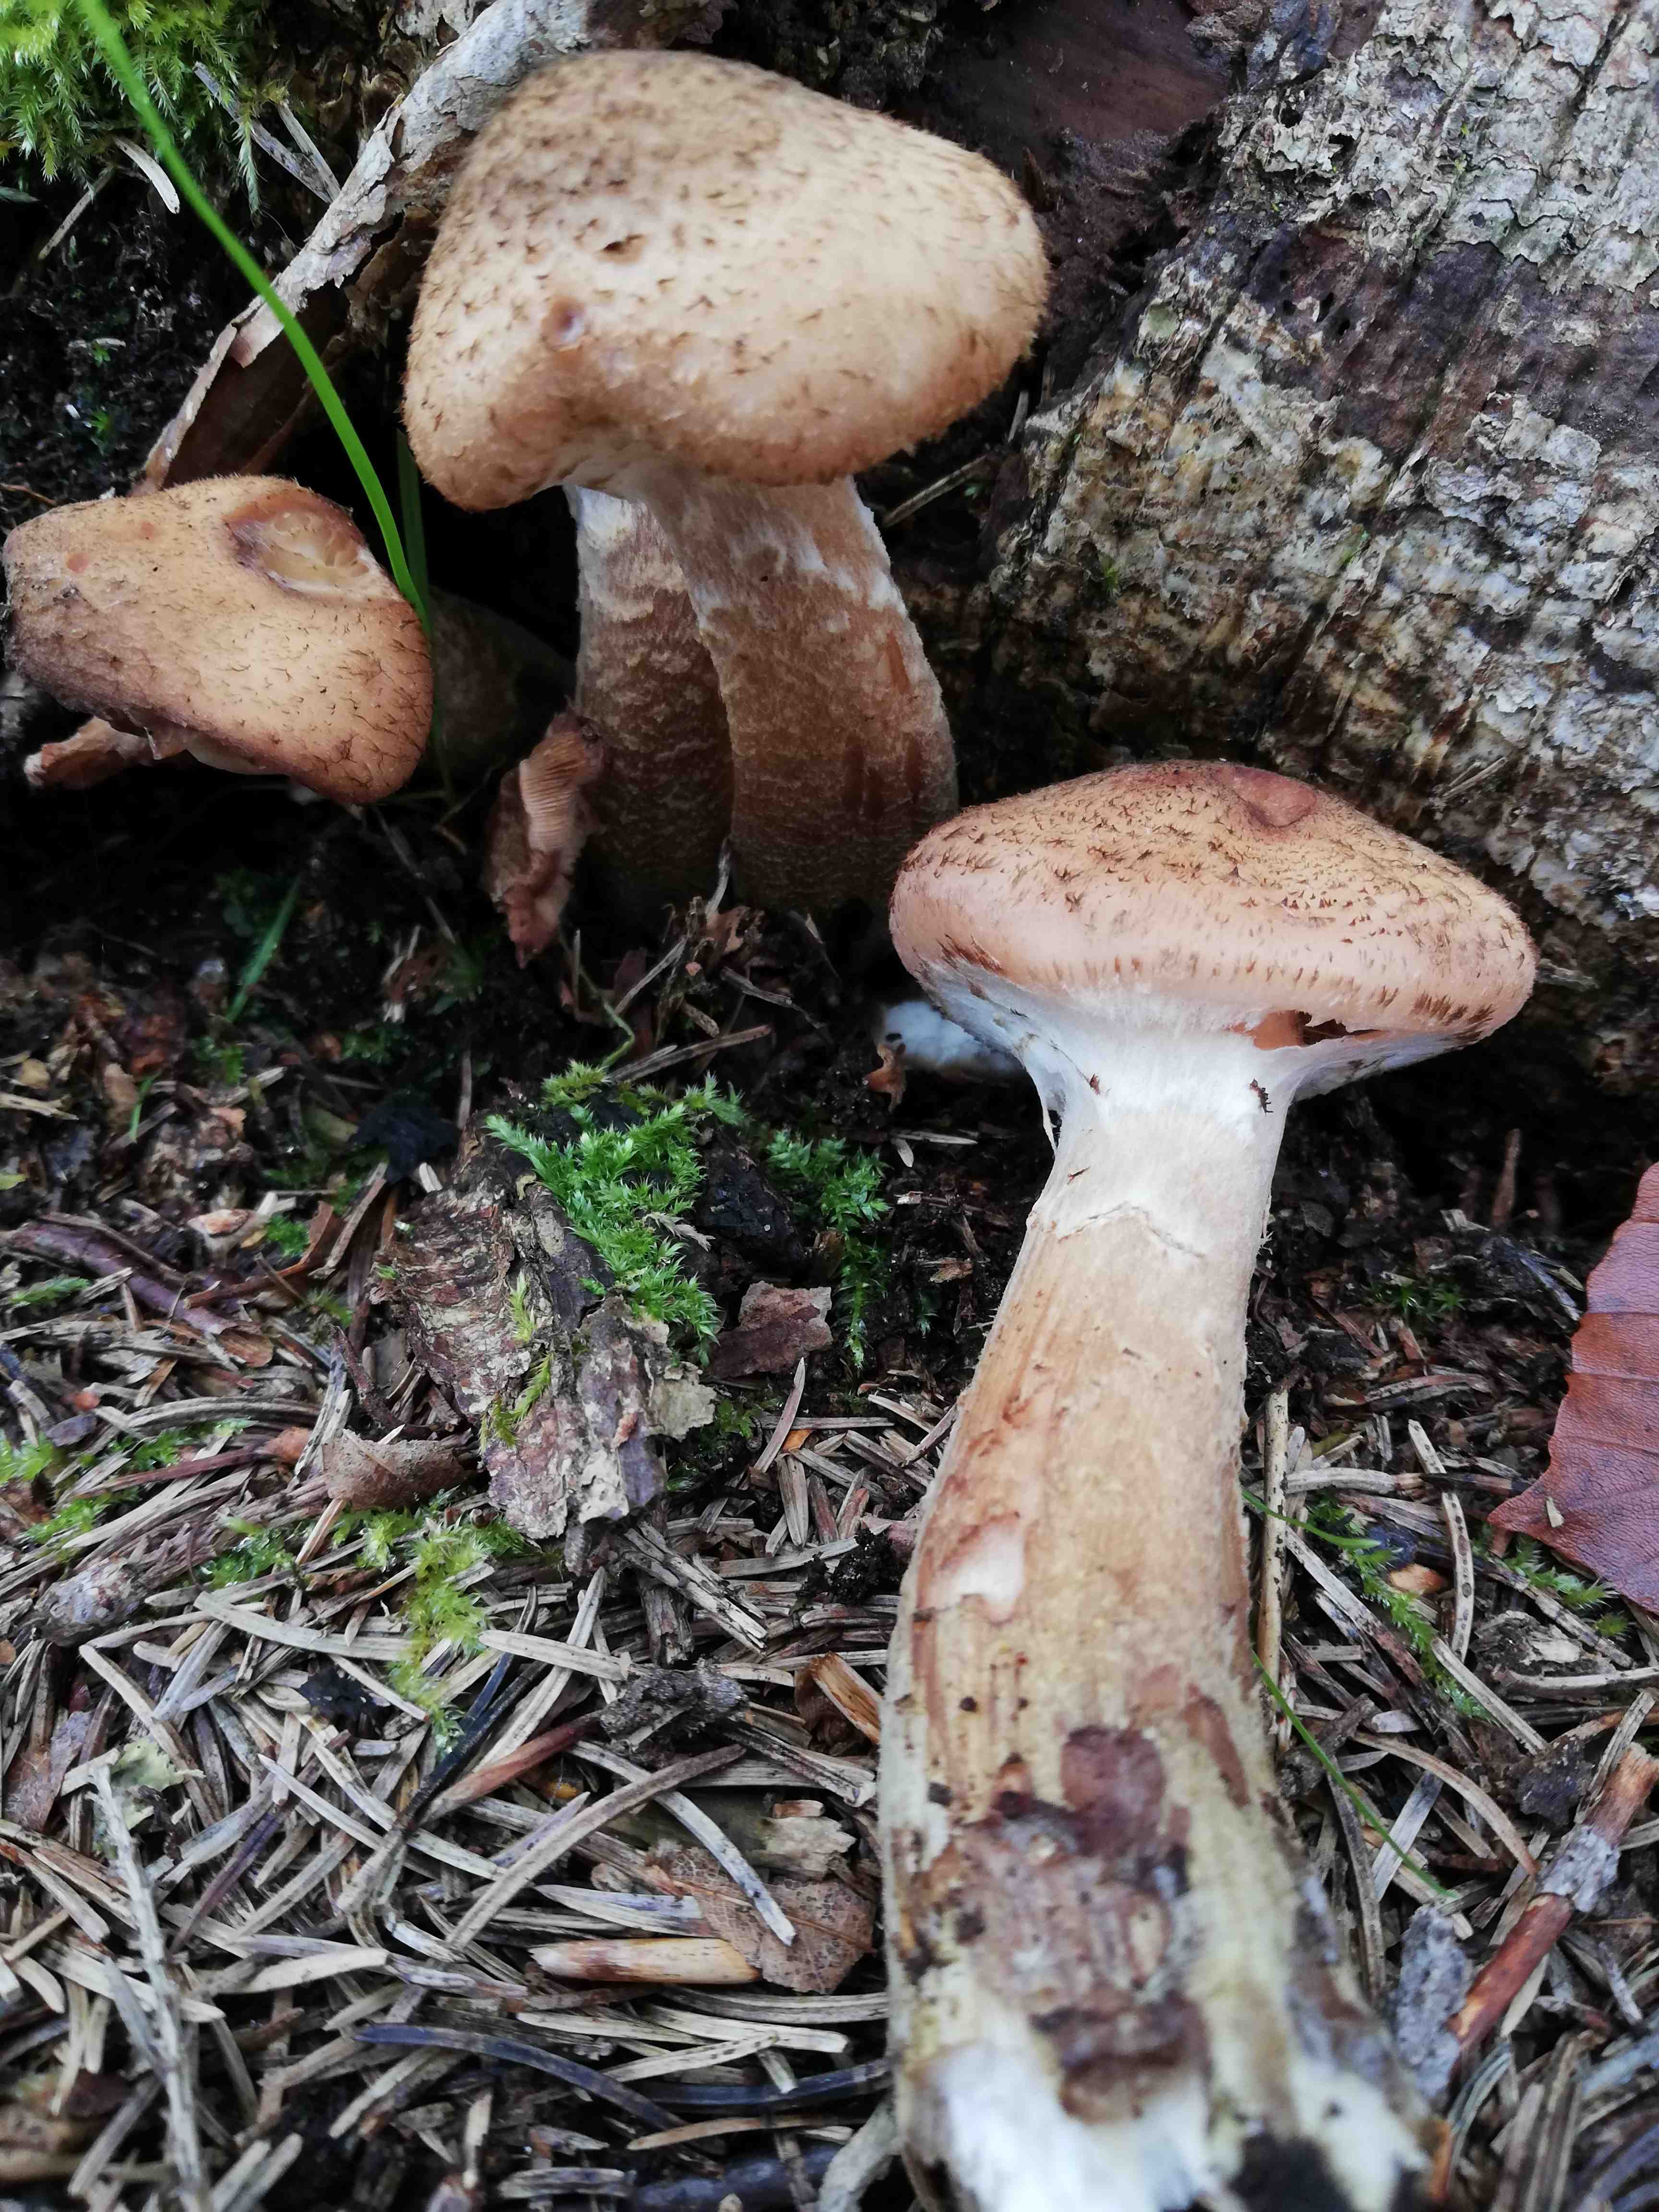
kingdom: Fungi
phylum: Basidiomycota
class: Agaricomycetes
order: Agaricales
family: Physalacriaceae
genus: Armillaria
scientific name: Armillaria ostoyae
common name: mørk honningsvamp
